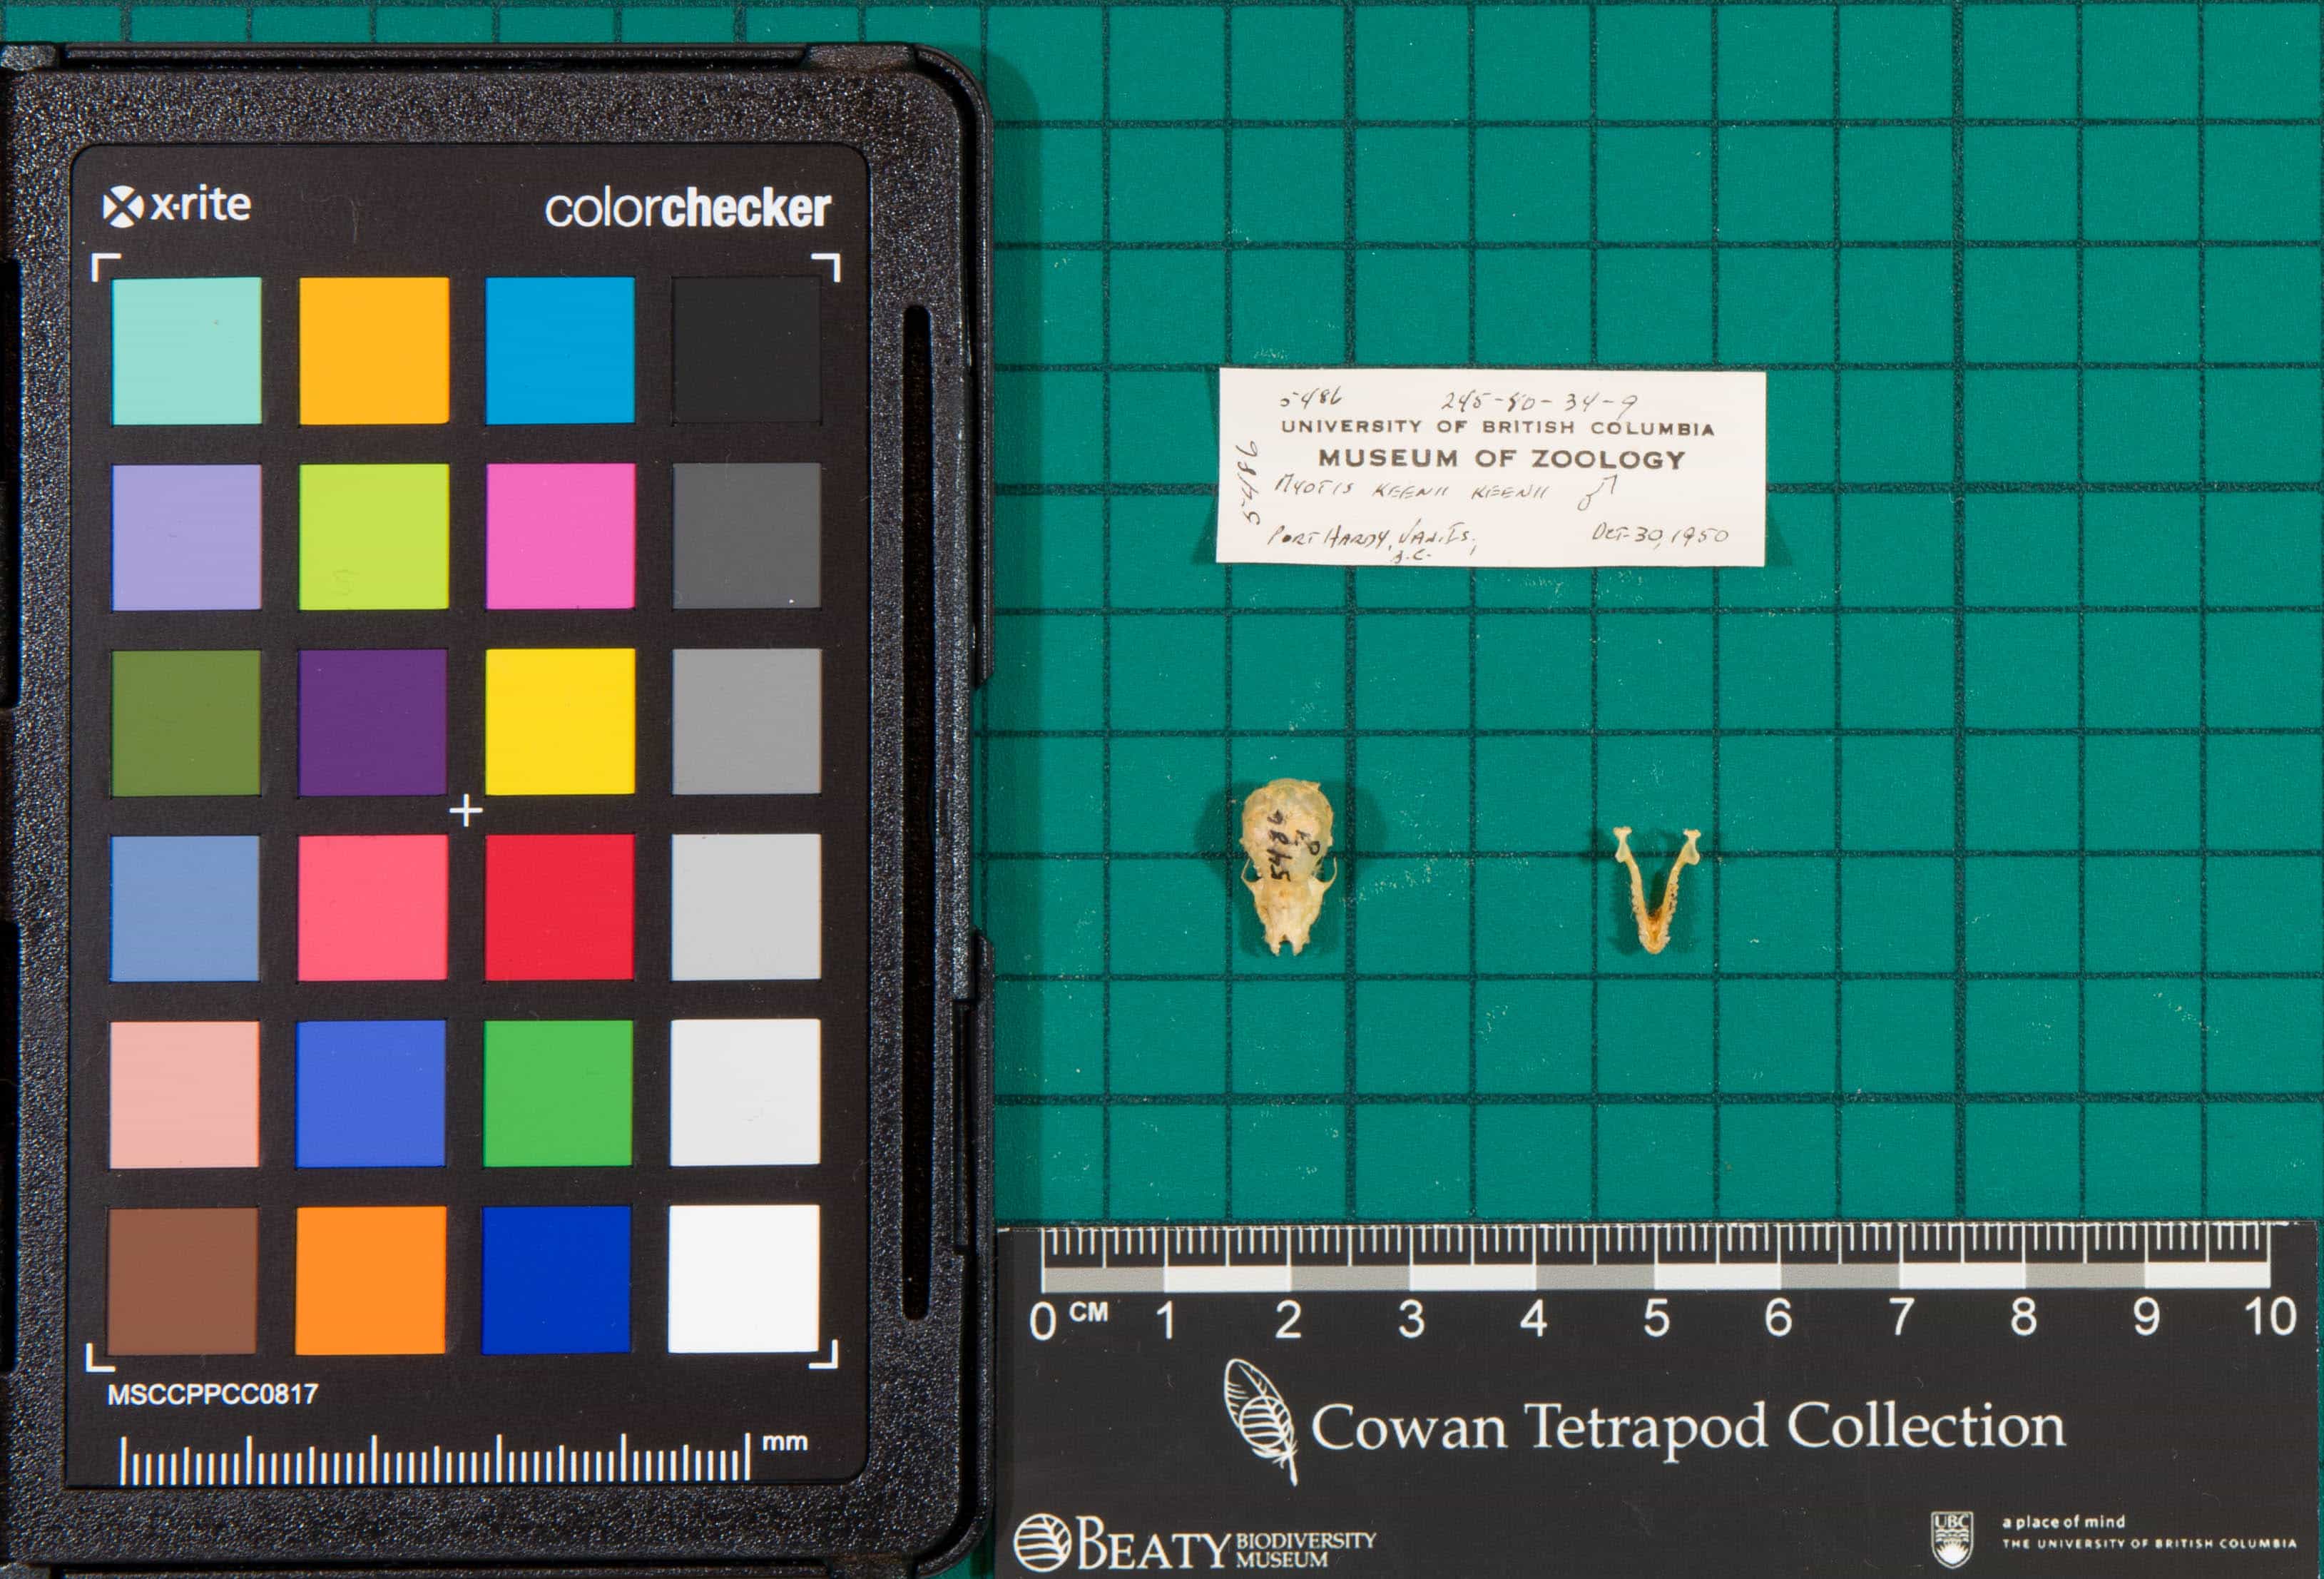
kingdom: Animalia
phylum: Chordata
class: Mammalia
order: Chiroptera
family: Vespertilionidae
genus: Myotis
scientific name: Myotis keenii
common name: Keen's Myotis
